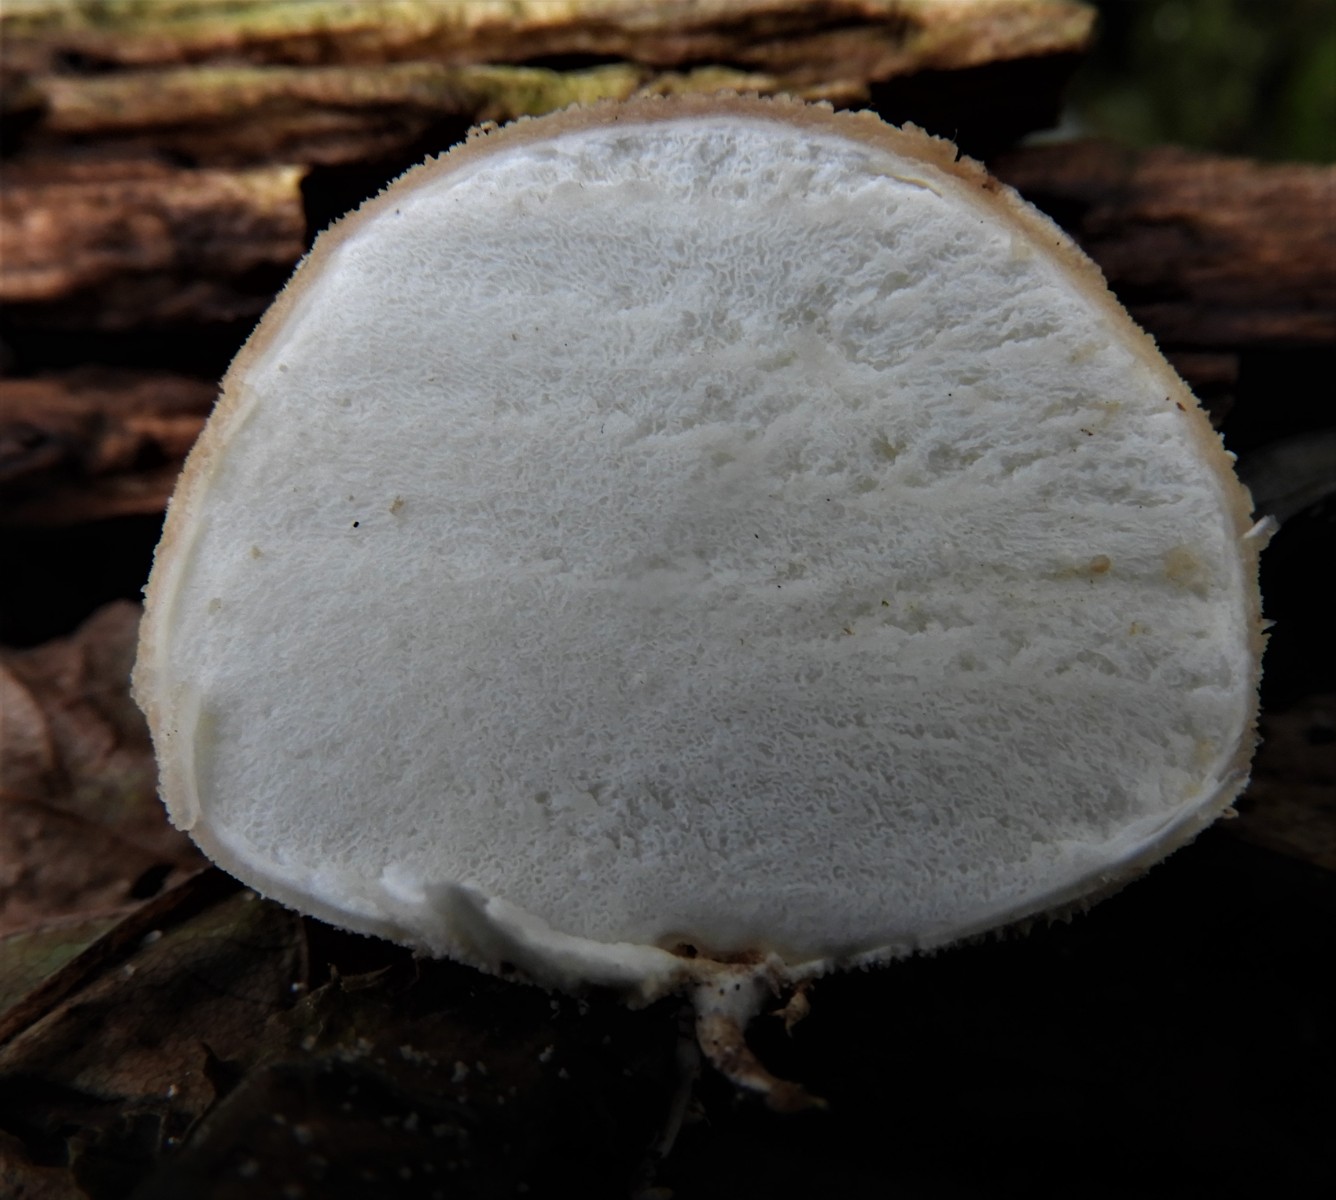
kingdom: Fungi
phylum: Basidiomycota
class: Agaricomycetes
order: Agaricales
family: Agaricaceae
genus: Lycoperdon
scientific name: Lycoperdon
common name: støvbold
